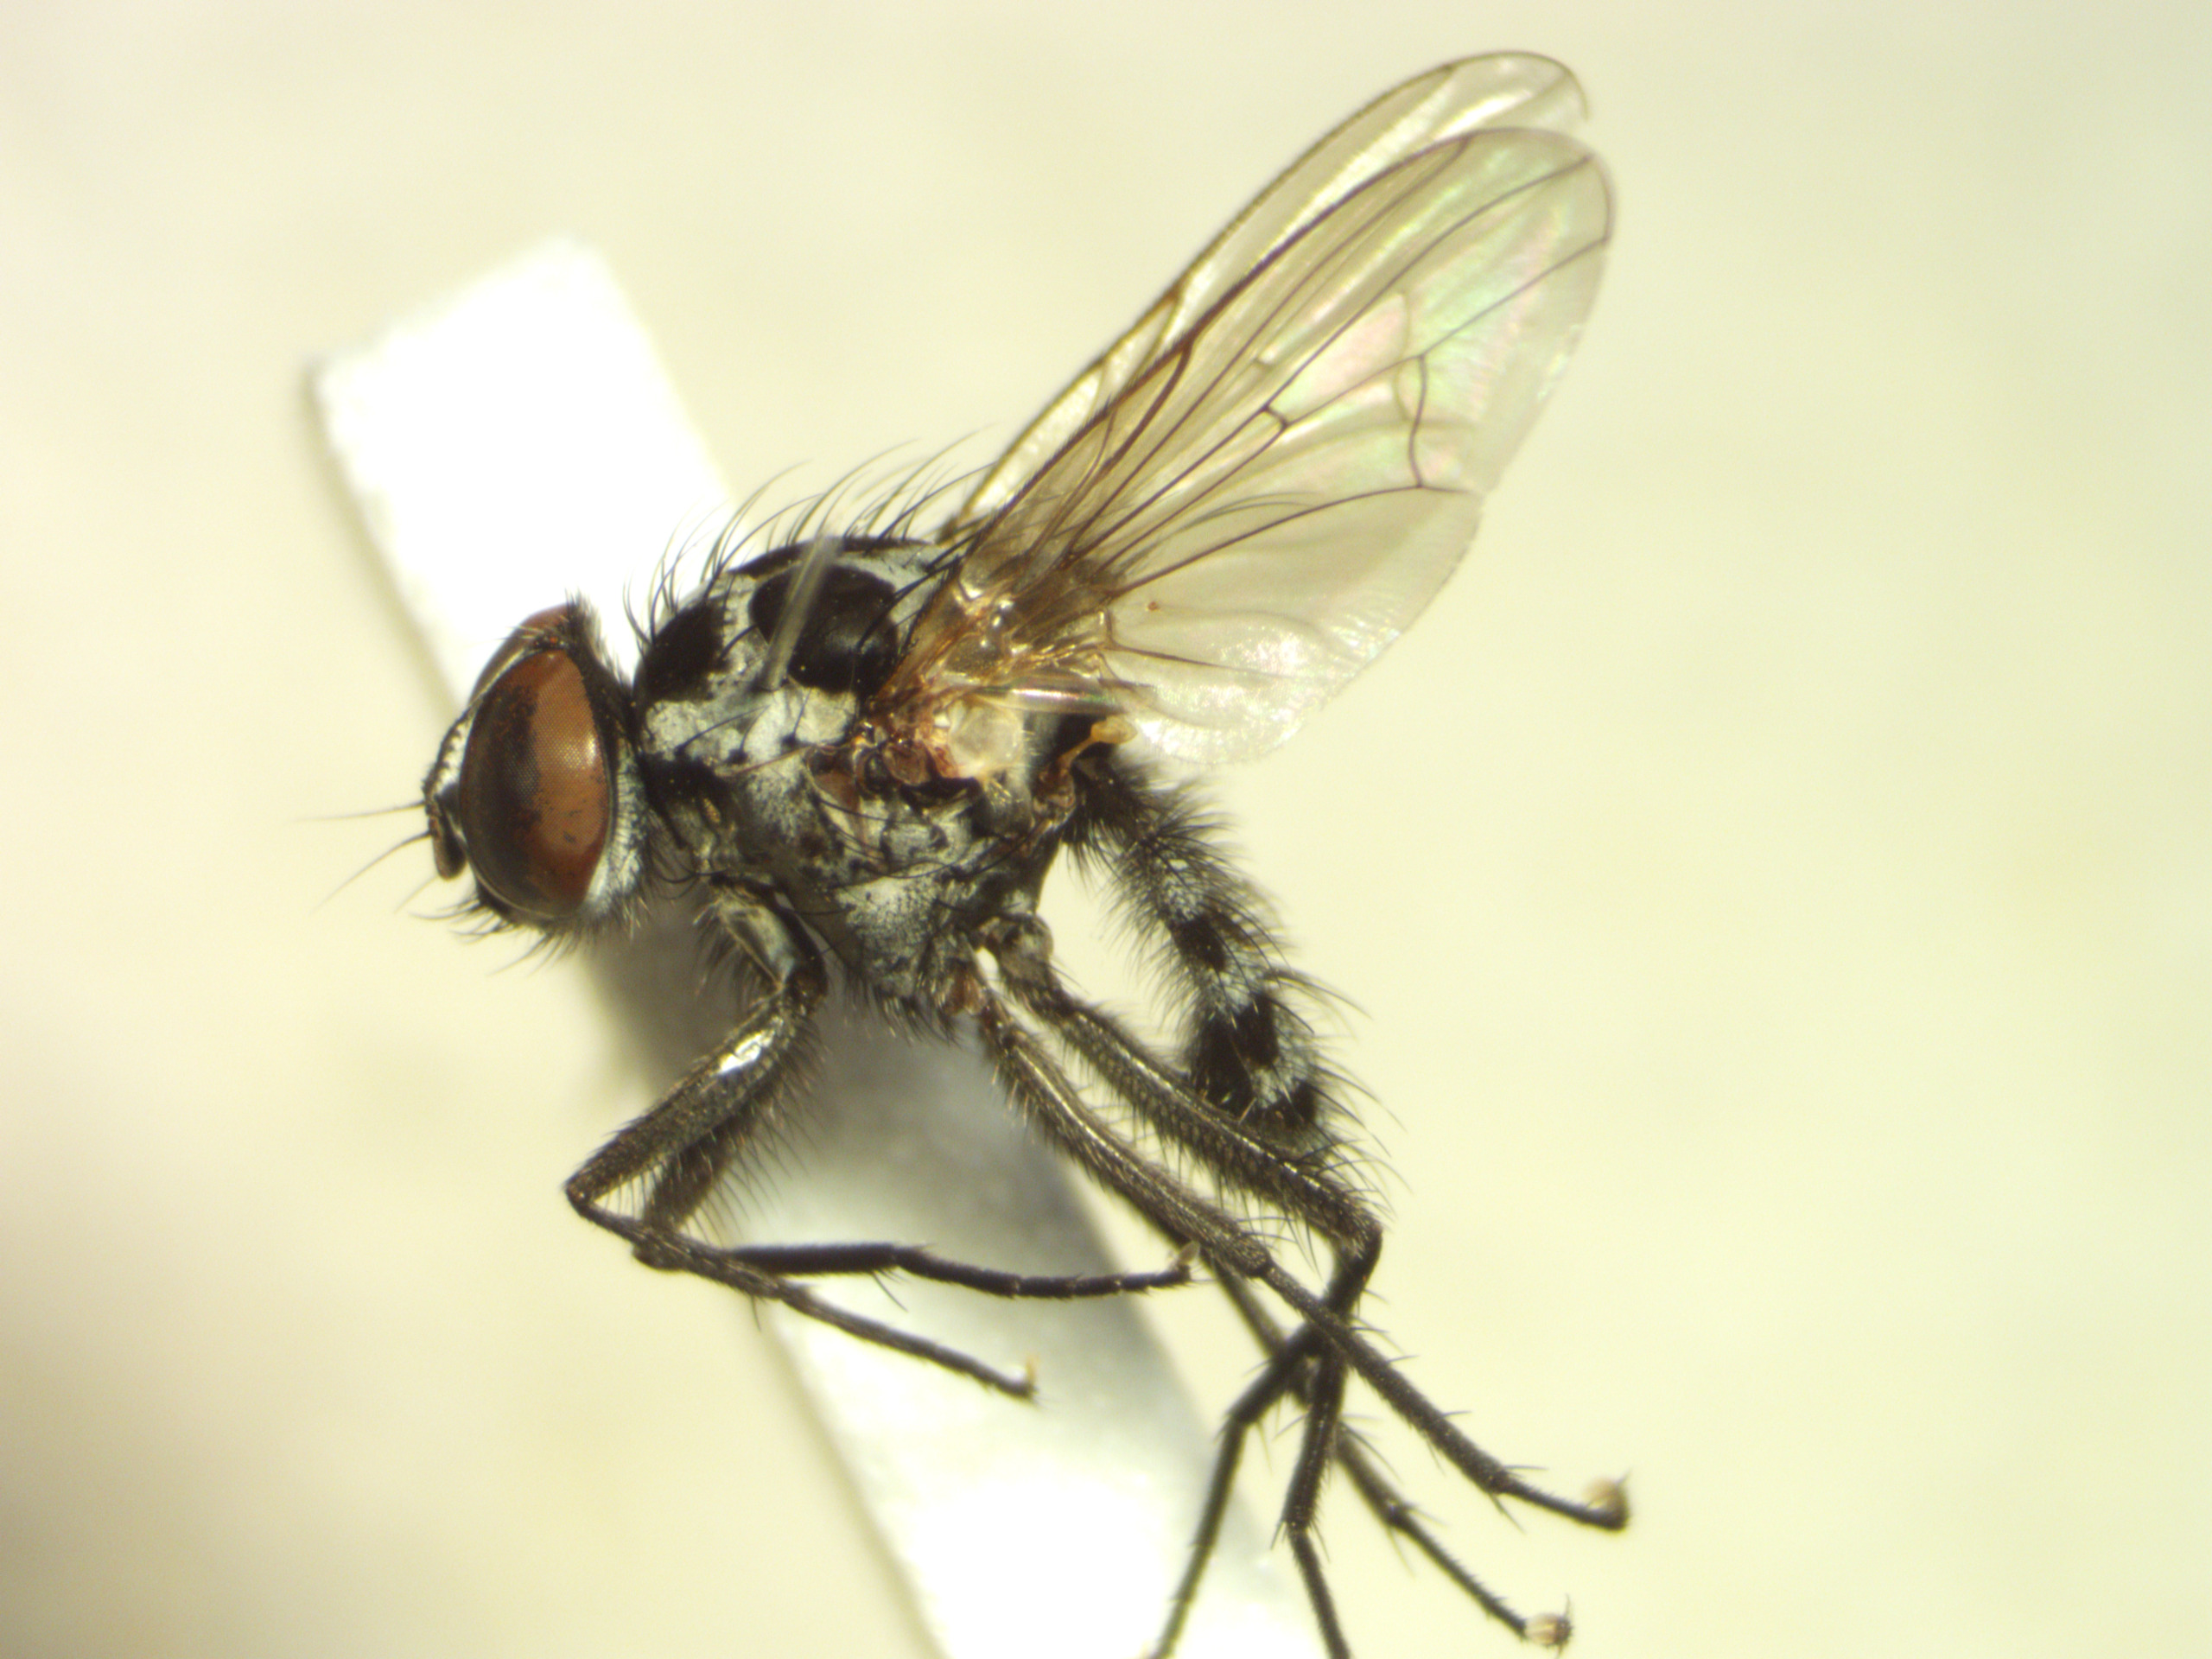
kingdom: Animalia
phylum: Arthropoda
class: Insecta
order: Diptera
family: Anthomyiidae
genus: Anthomyia
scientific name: Anthomyia procellaris
